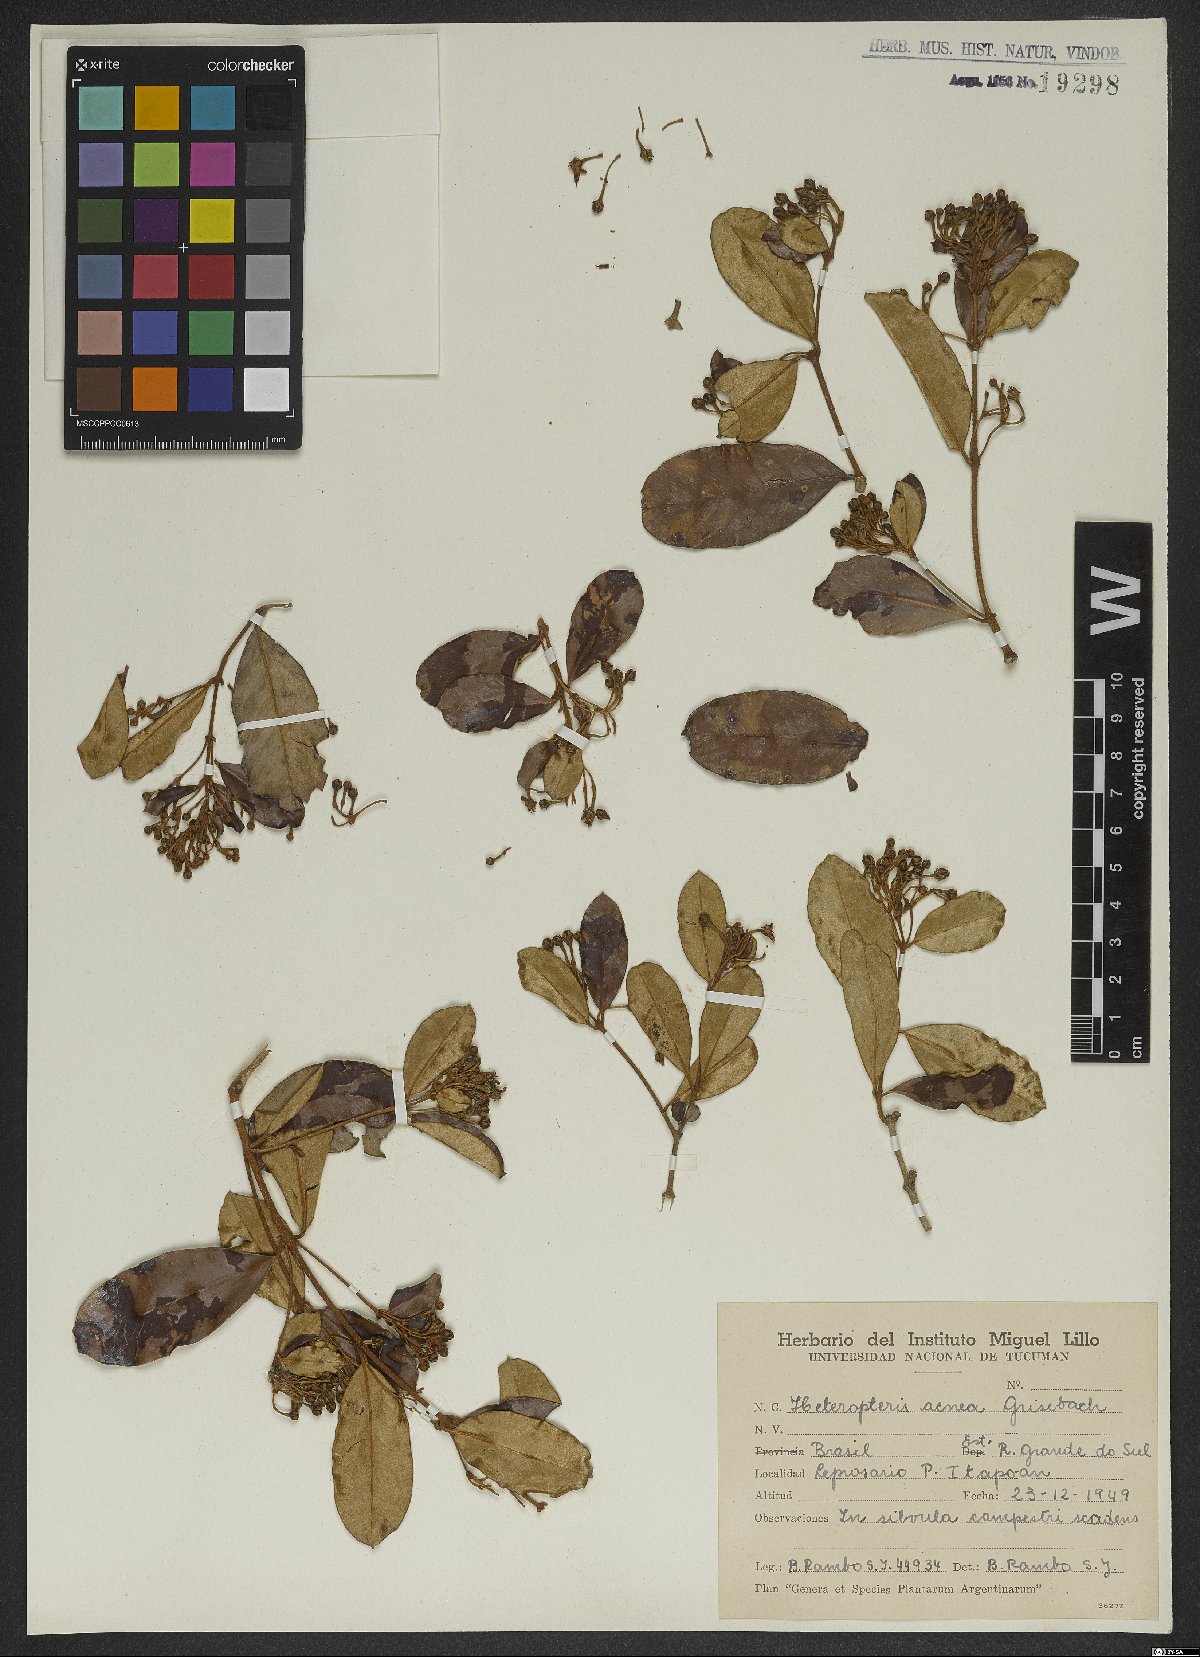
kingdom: Plantae
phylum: Tracheophyta
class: Magnoliopsida
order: Malpighiales
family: Malpighiaceae
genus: Heteropterys
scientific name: Heteropterys aenea
